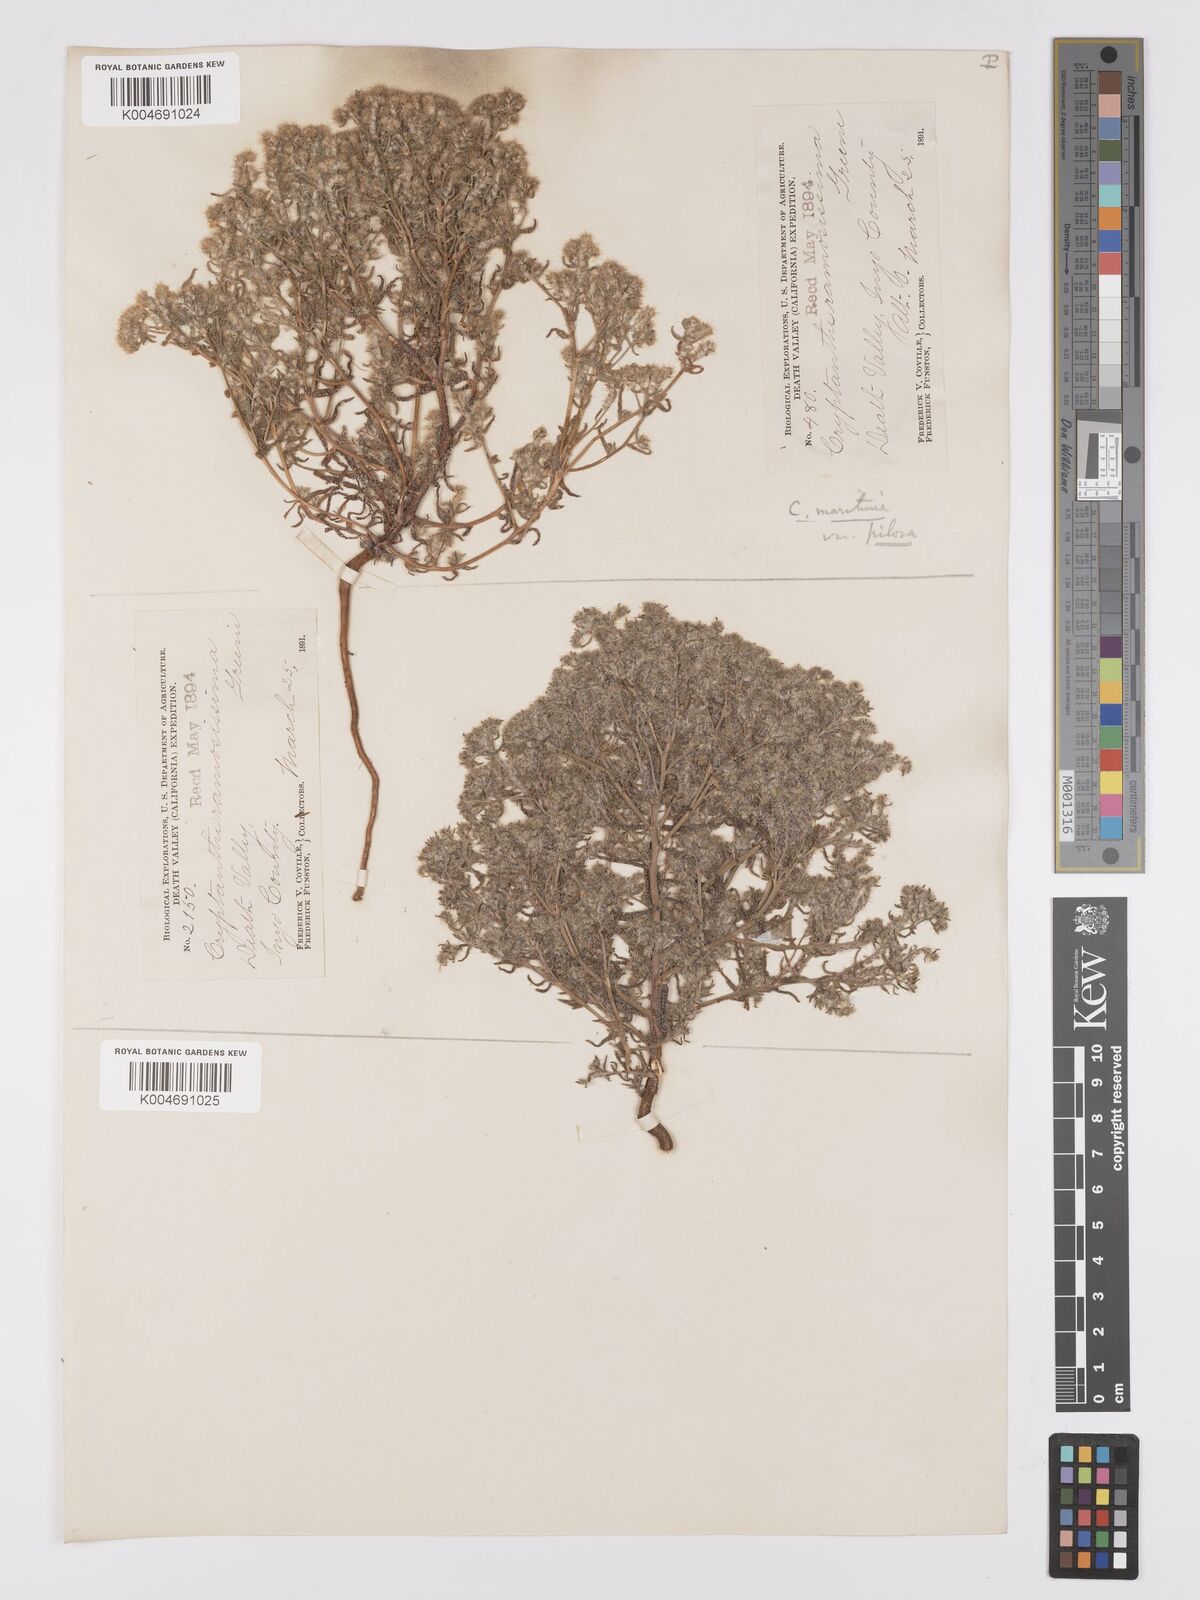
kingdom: Plantae
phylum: Tracheophyta
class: Magnoliopsida
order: Boraginales
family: Boraginaceae
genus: Cryptantha
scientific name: Cryptantha maritima
